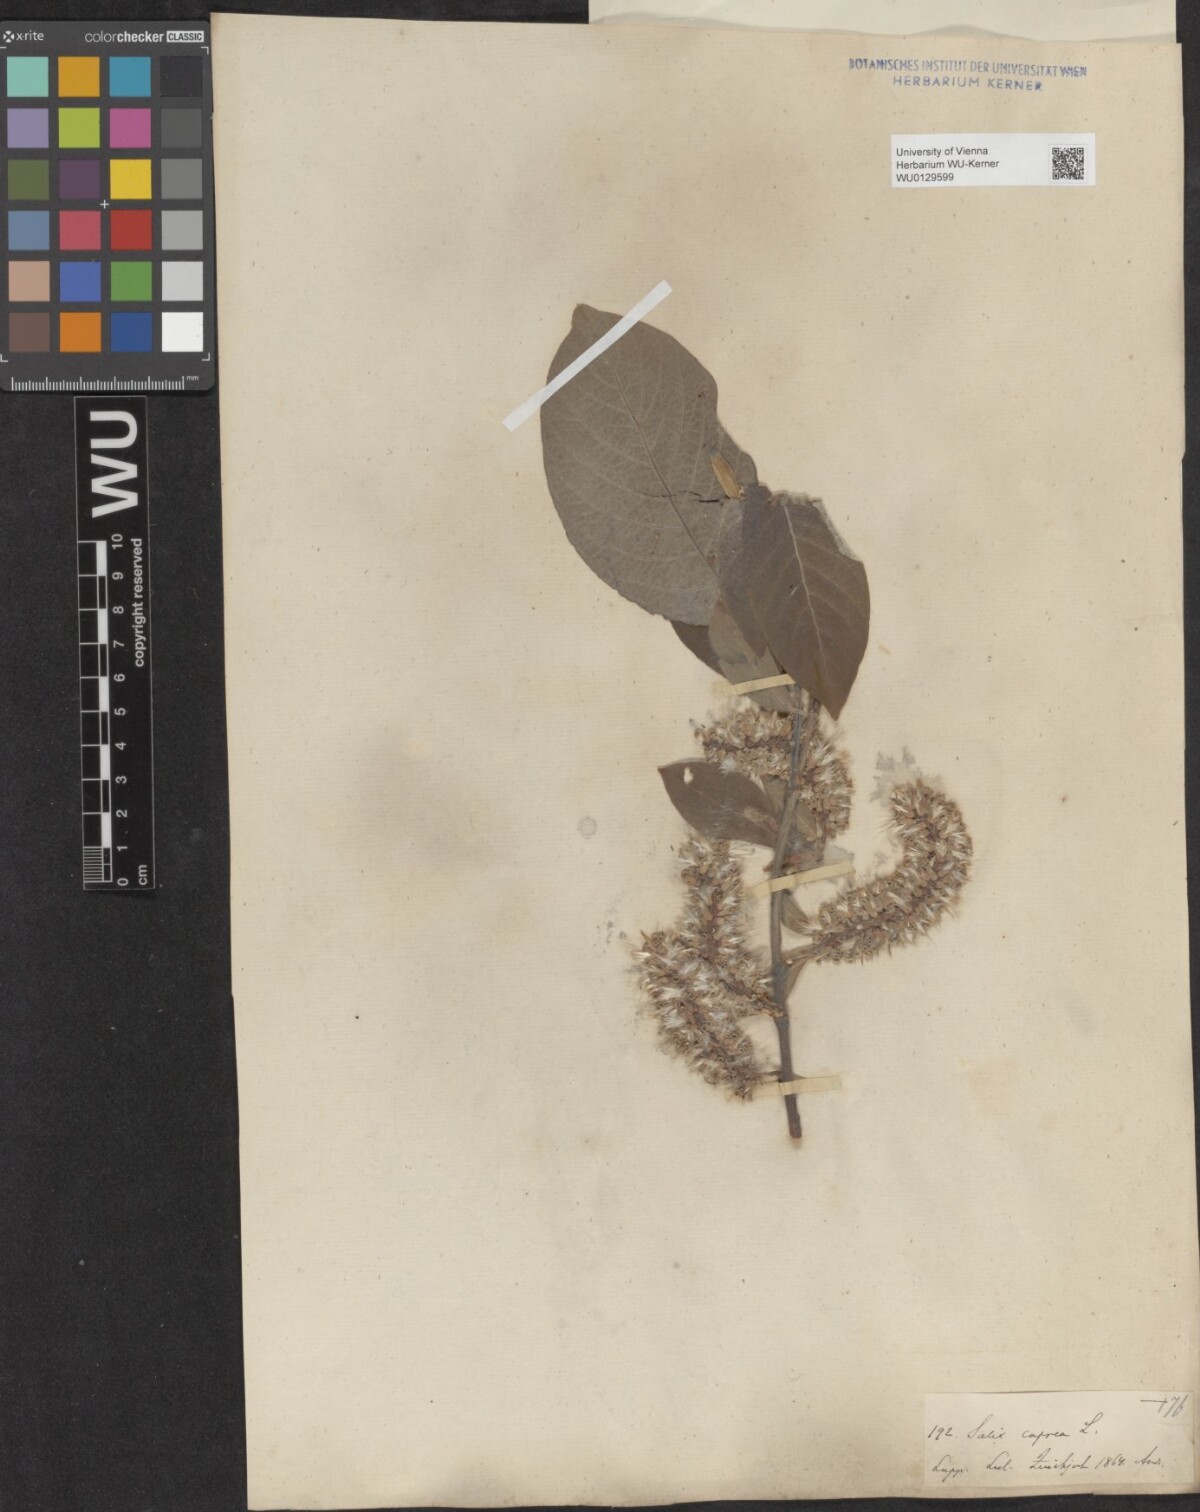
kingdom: Plantae
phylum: Tracheophyta
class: Magnoliopsida
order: Malpighiales
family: Salicaceae
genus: Salix
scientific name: Salix caprea
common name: Goat willow
